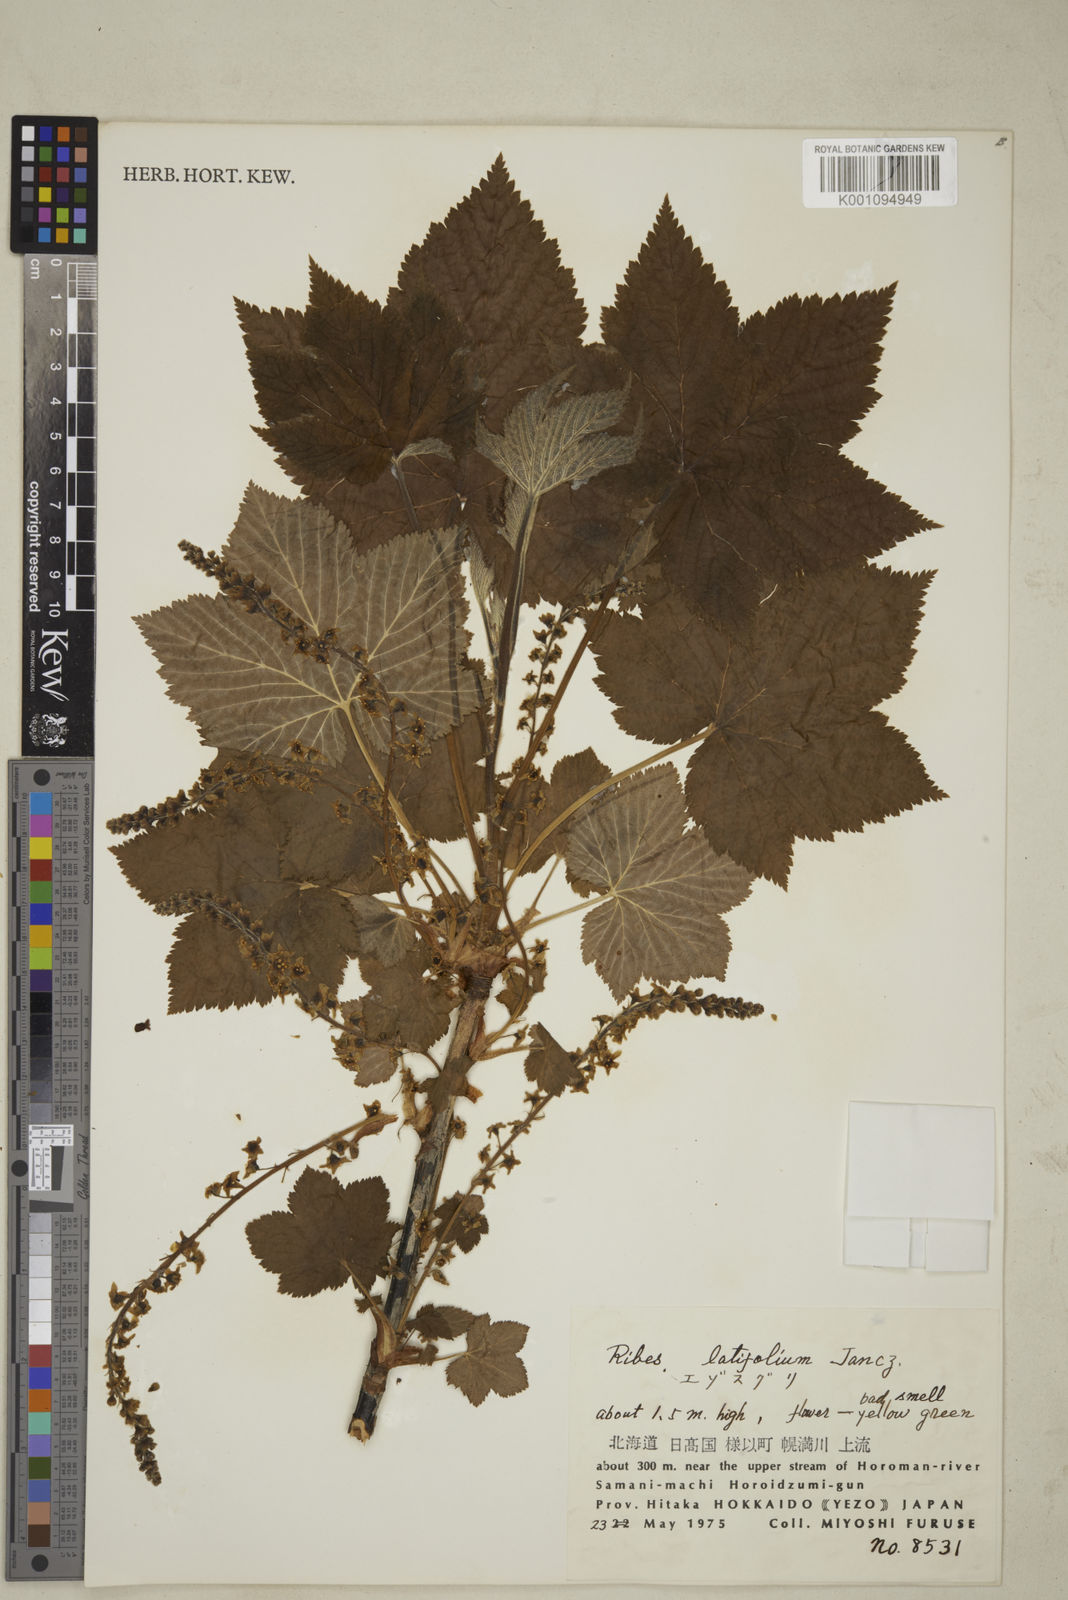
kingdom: Plantae
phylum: Tracheophyta
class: Magnoliopsida
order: Saxifragales
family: Grossulariaceae
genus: Ribes
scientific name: Ribes latifolium
